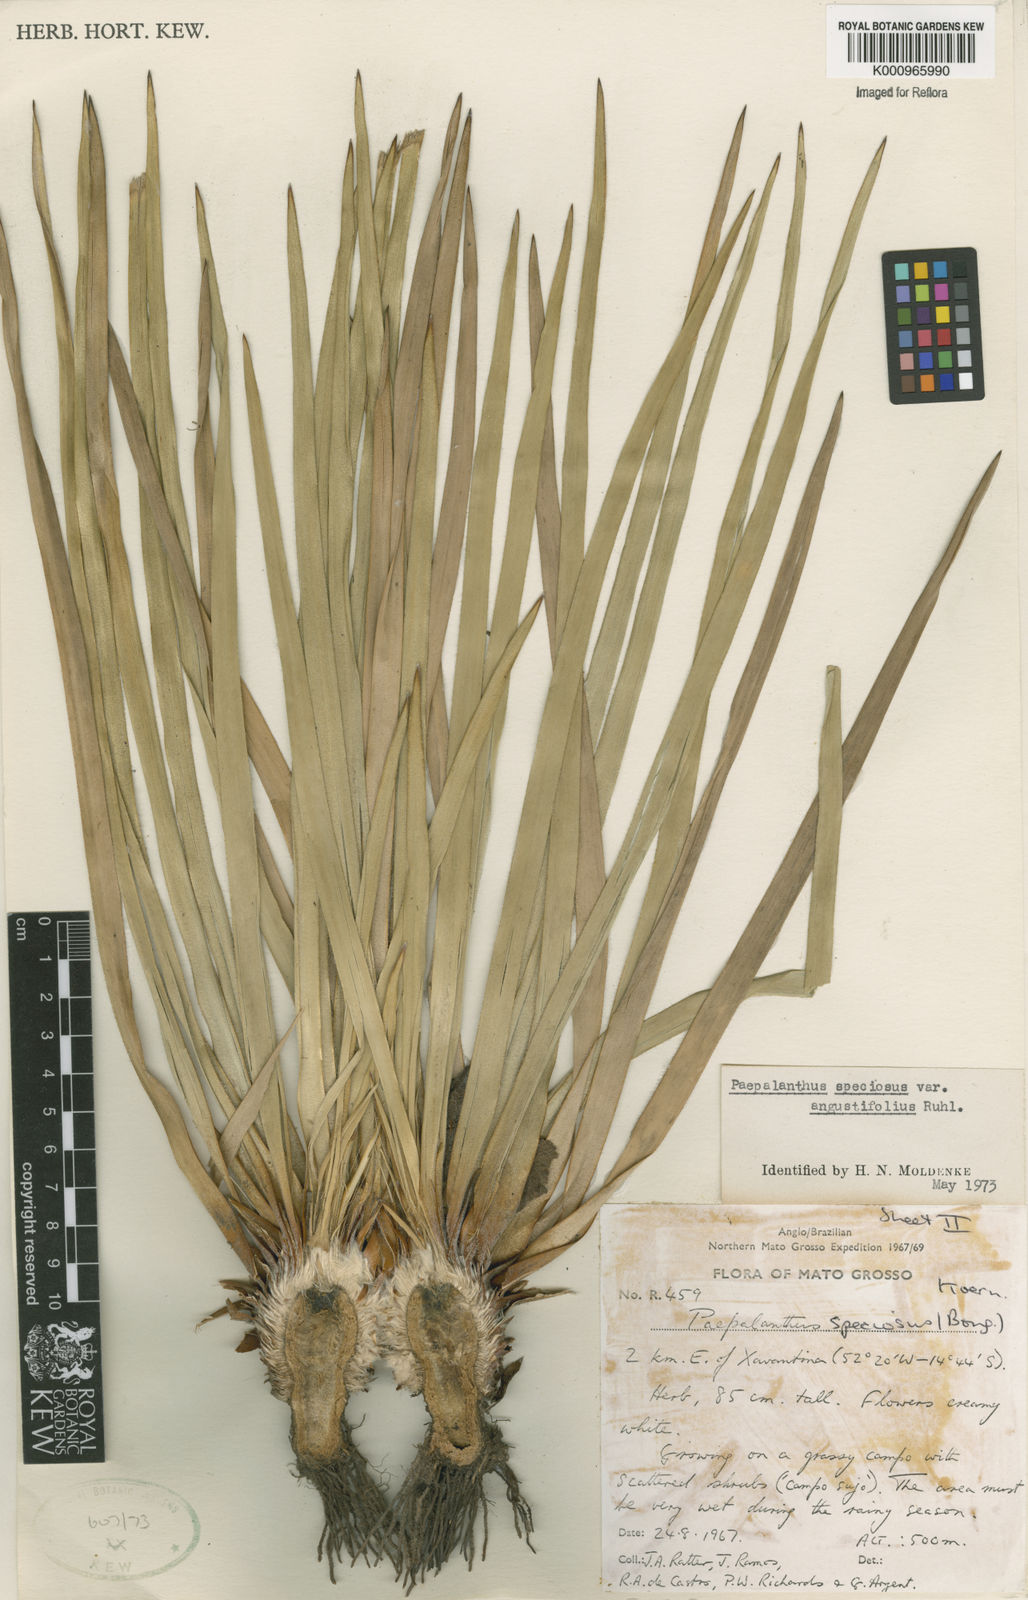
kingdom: Plantae
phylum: Tracheophyta
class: Liliopsida
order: Poales
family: Eriocaulaceae
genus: Paepalanthus
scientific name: Paepalanthus chiquitensis
